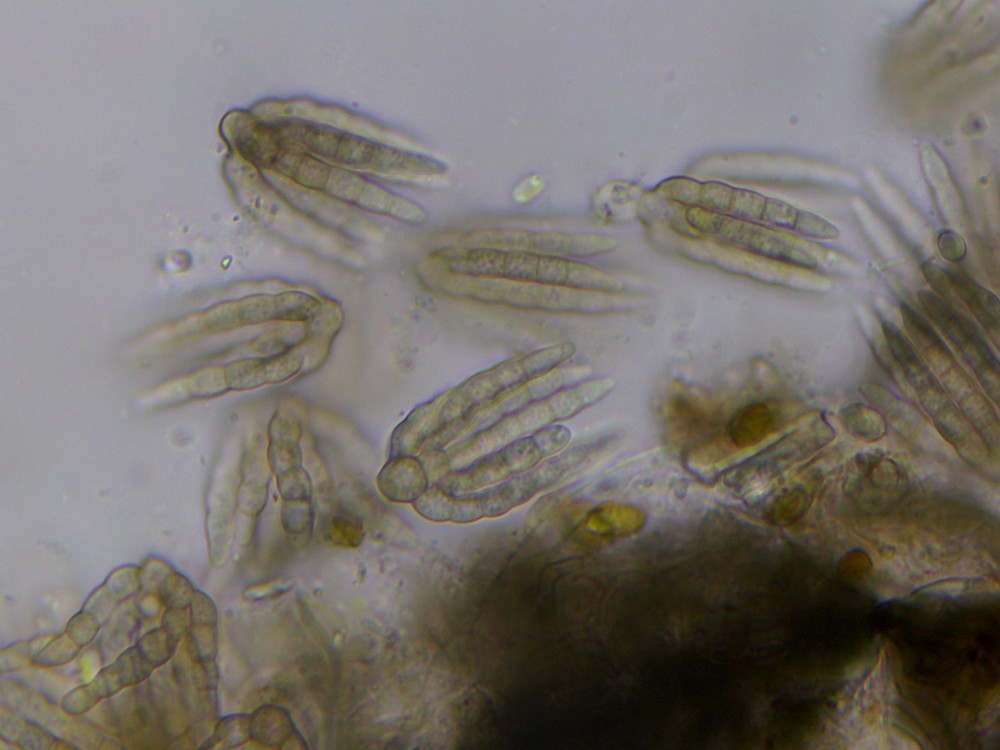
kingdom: Fungi
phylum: Ascomycota
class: Dothideomycetes
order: Pleosporales
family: Cryptocoryneaceae
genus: Cryptocoryneum
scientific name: Cryptocoryneum psammae
